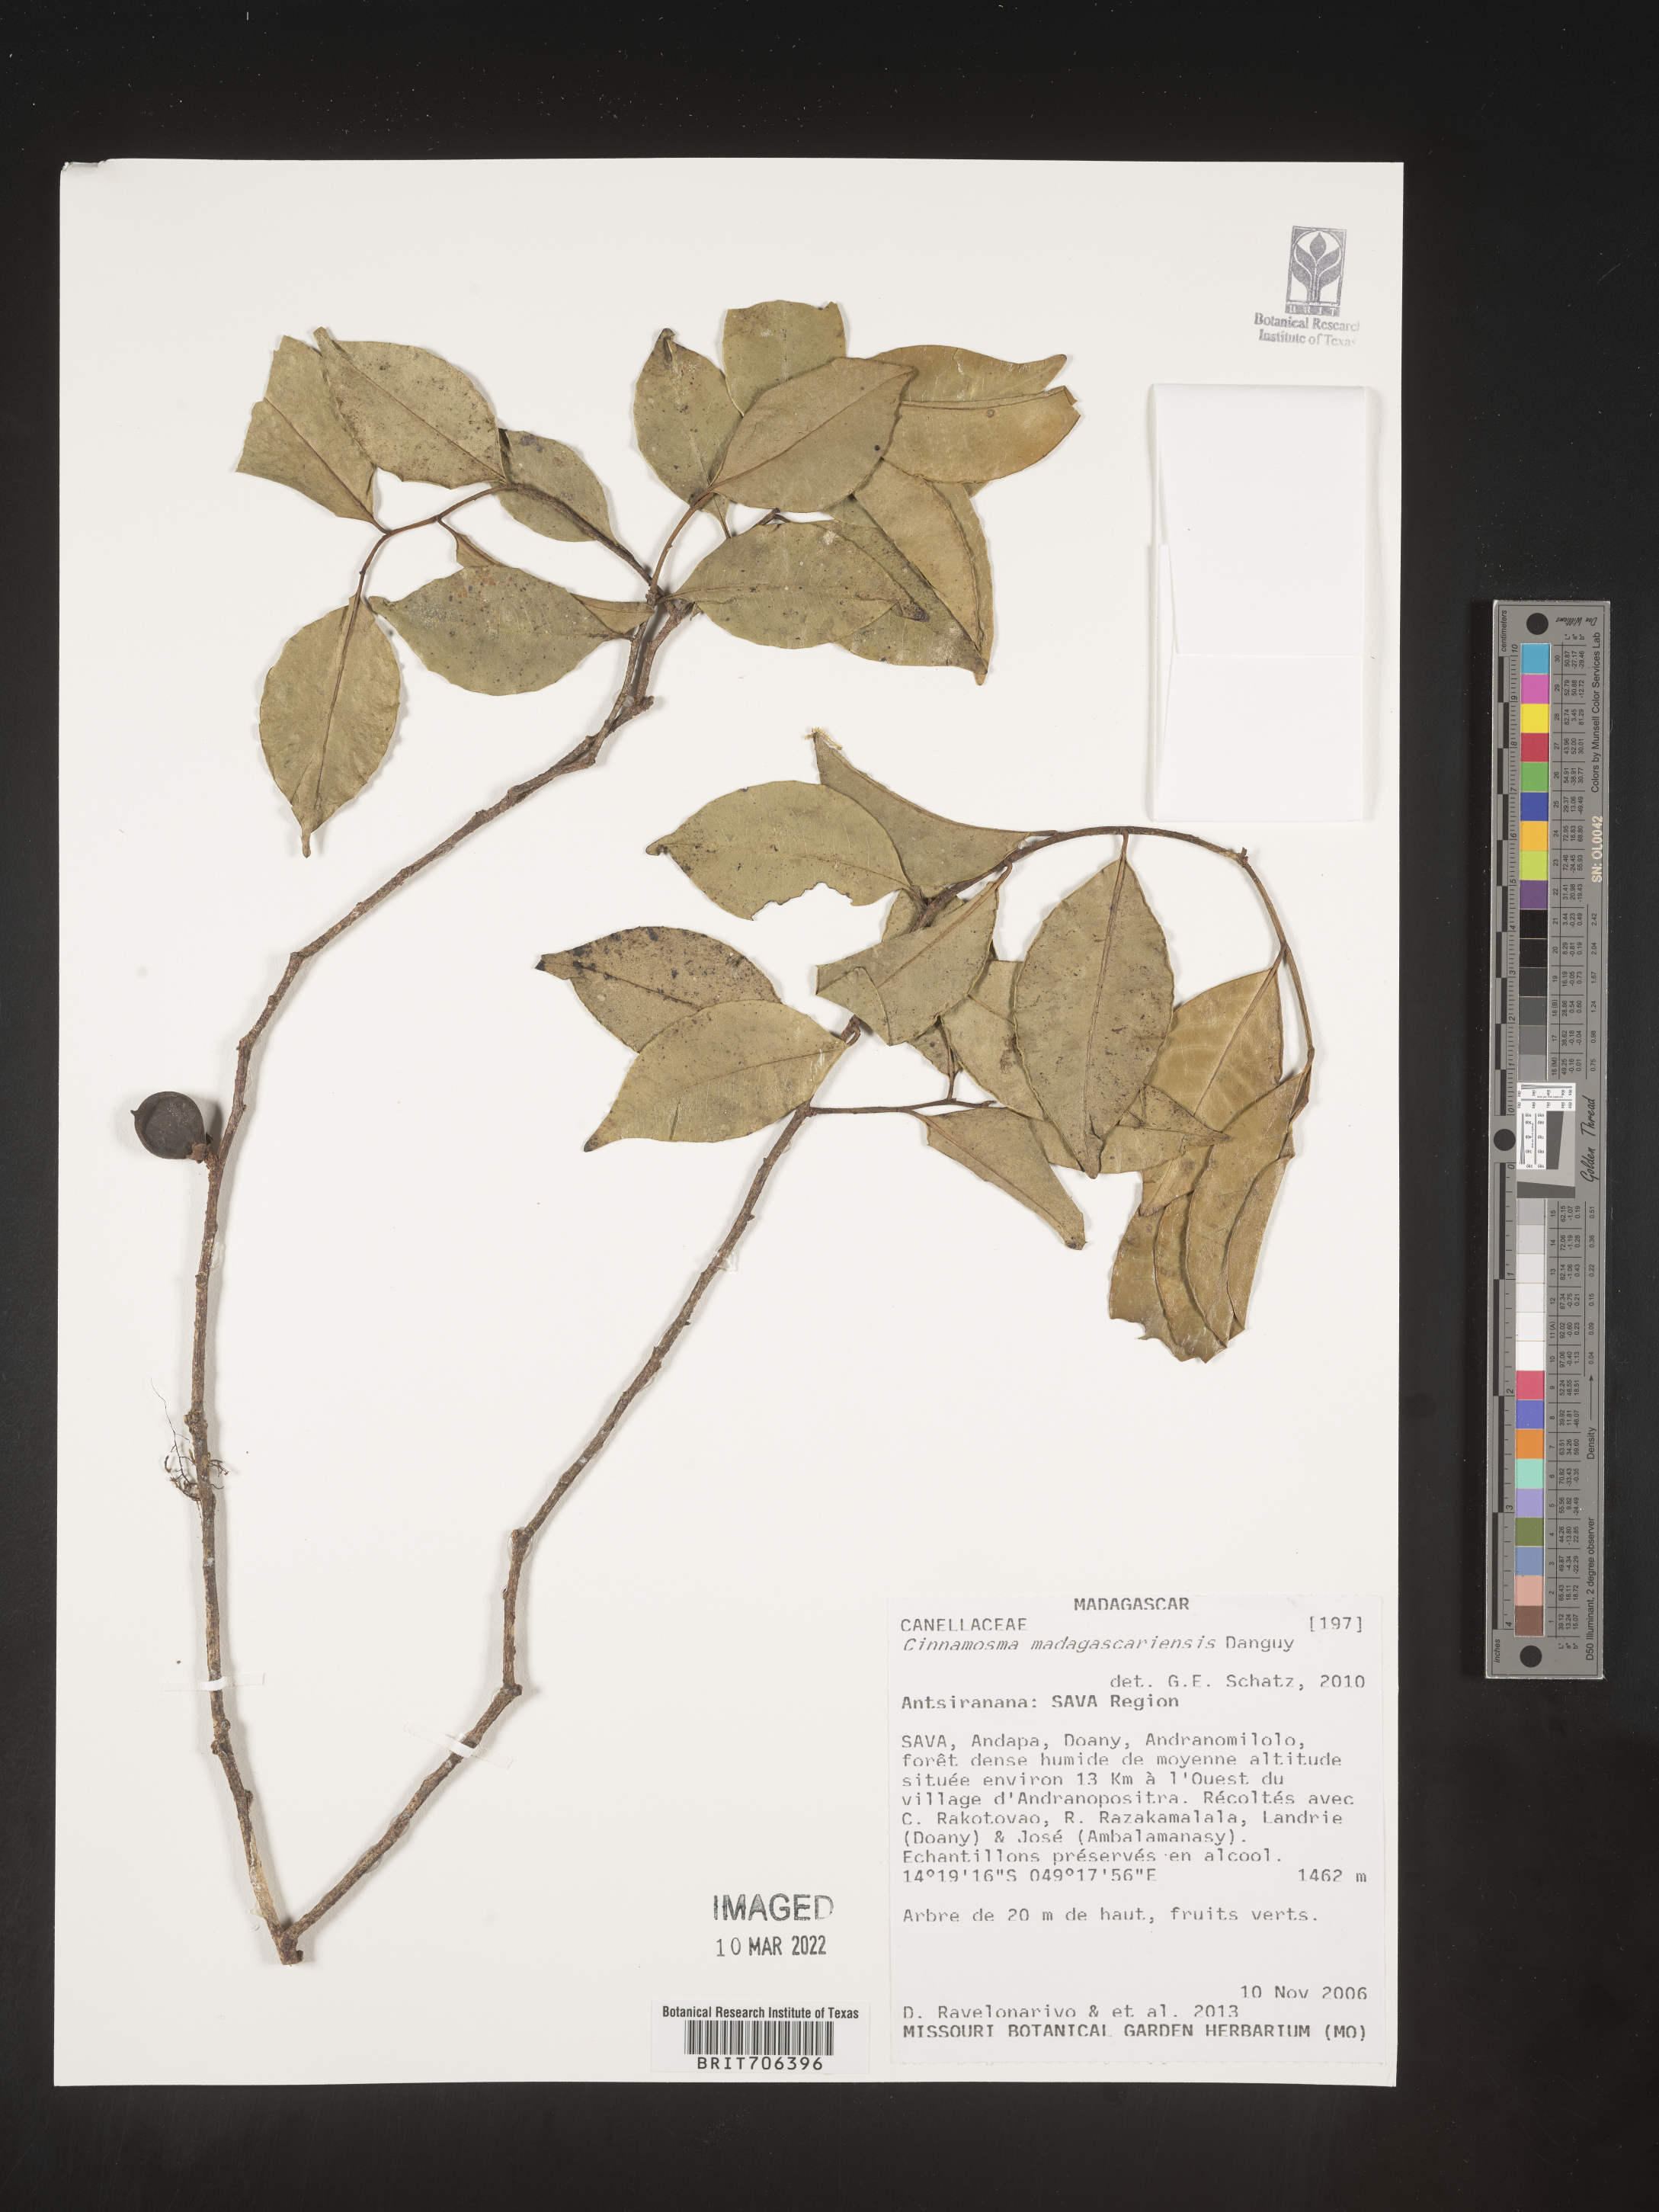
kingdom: Plantae
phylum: Tracheophyta
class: Magnoliopsida
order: Canellales
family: Canellaceae
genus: Cinnamosma
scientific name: Cinnamosma
